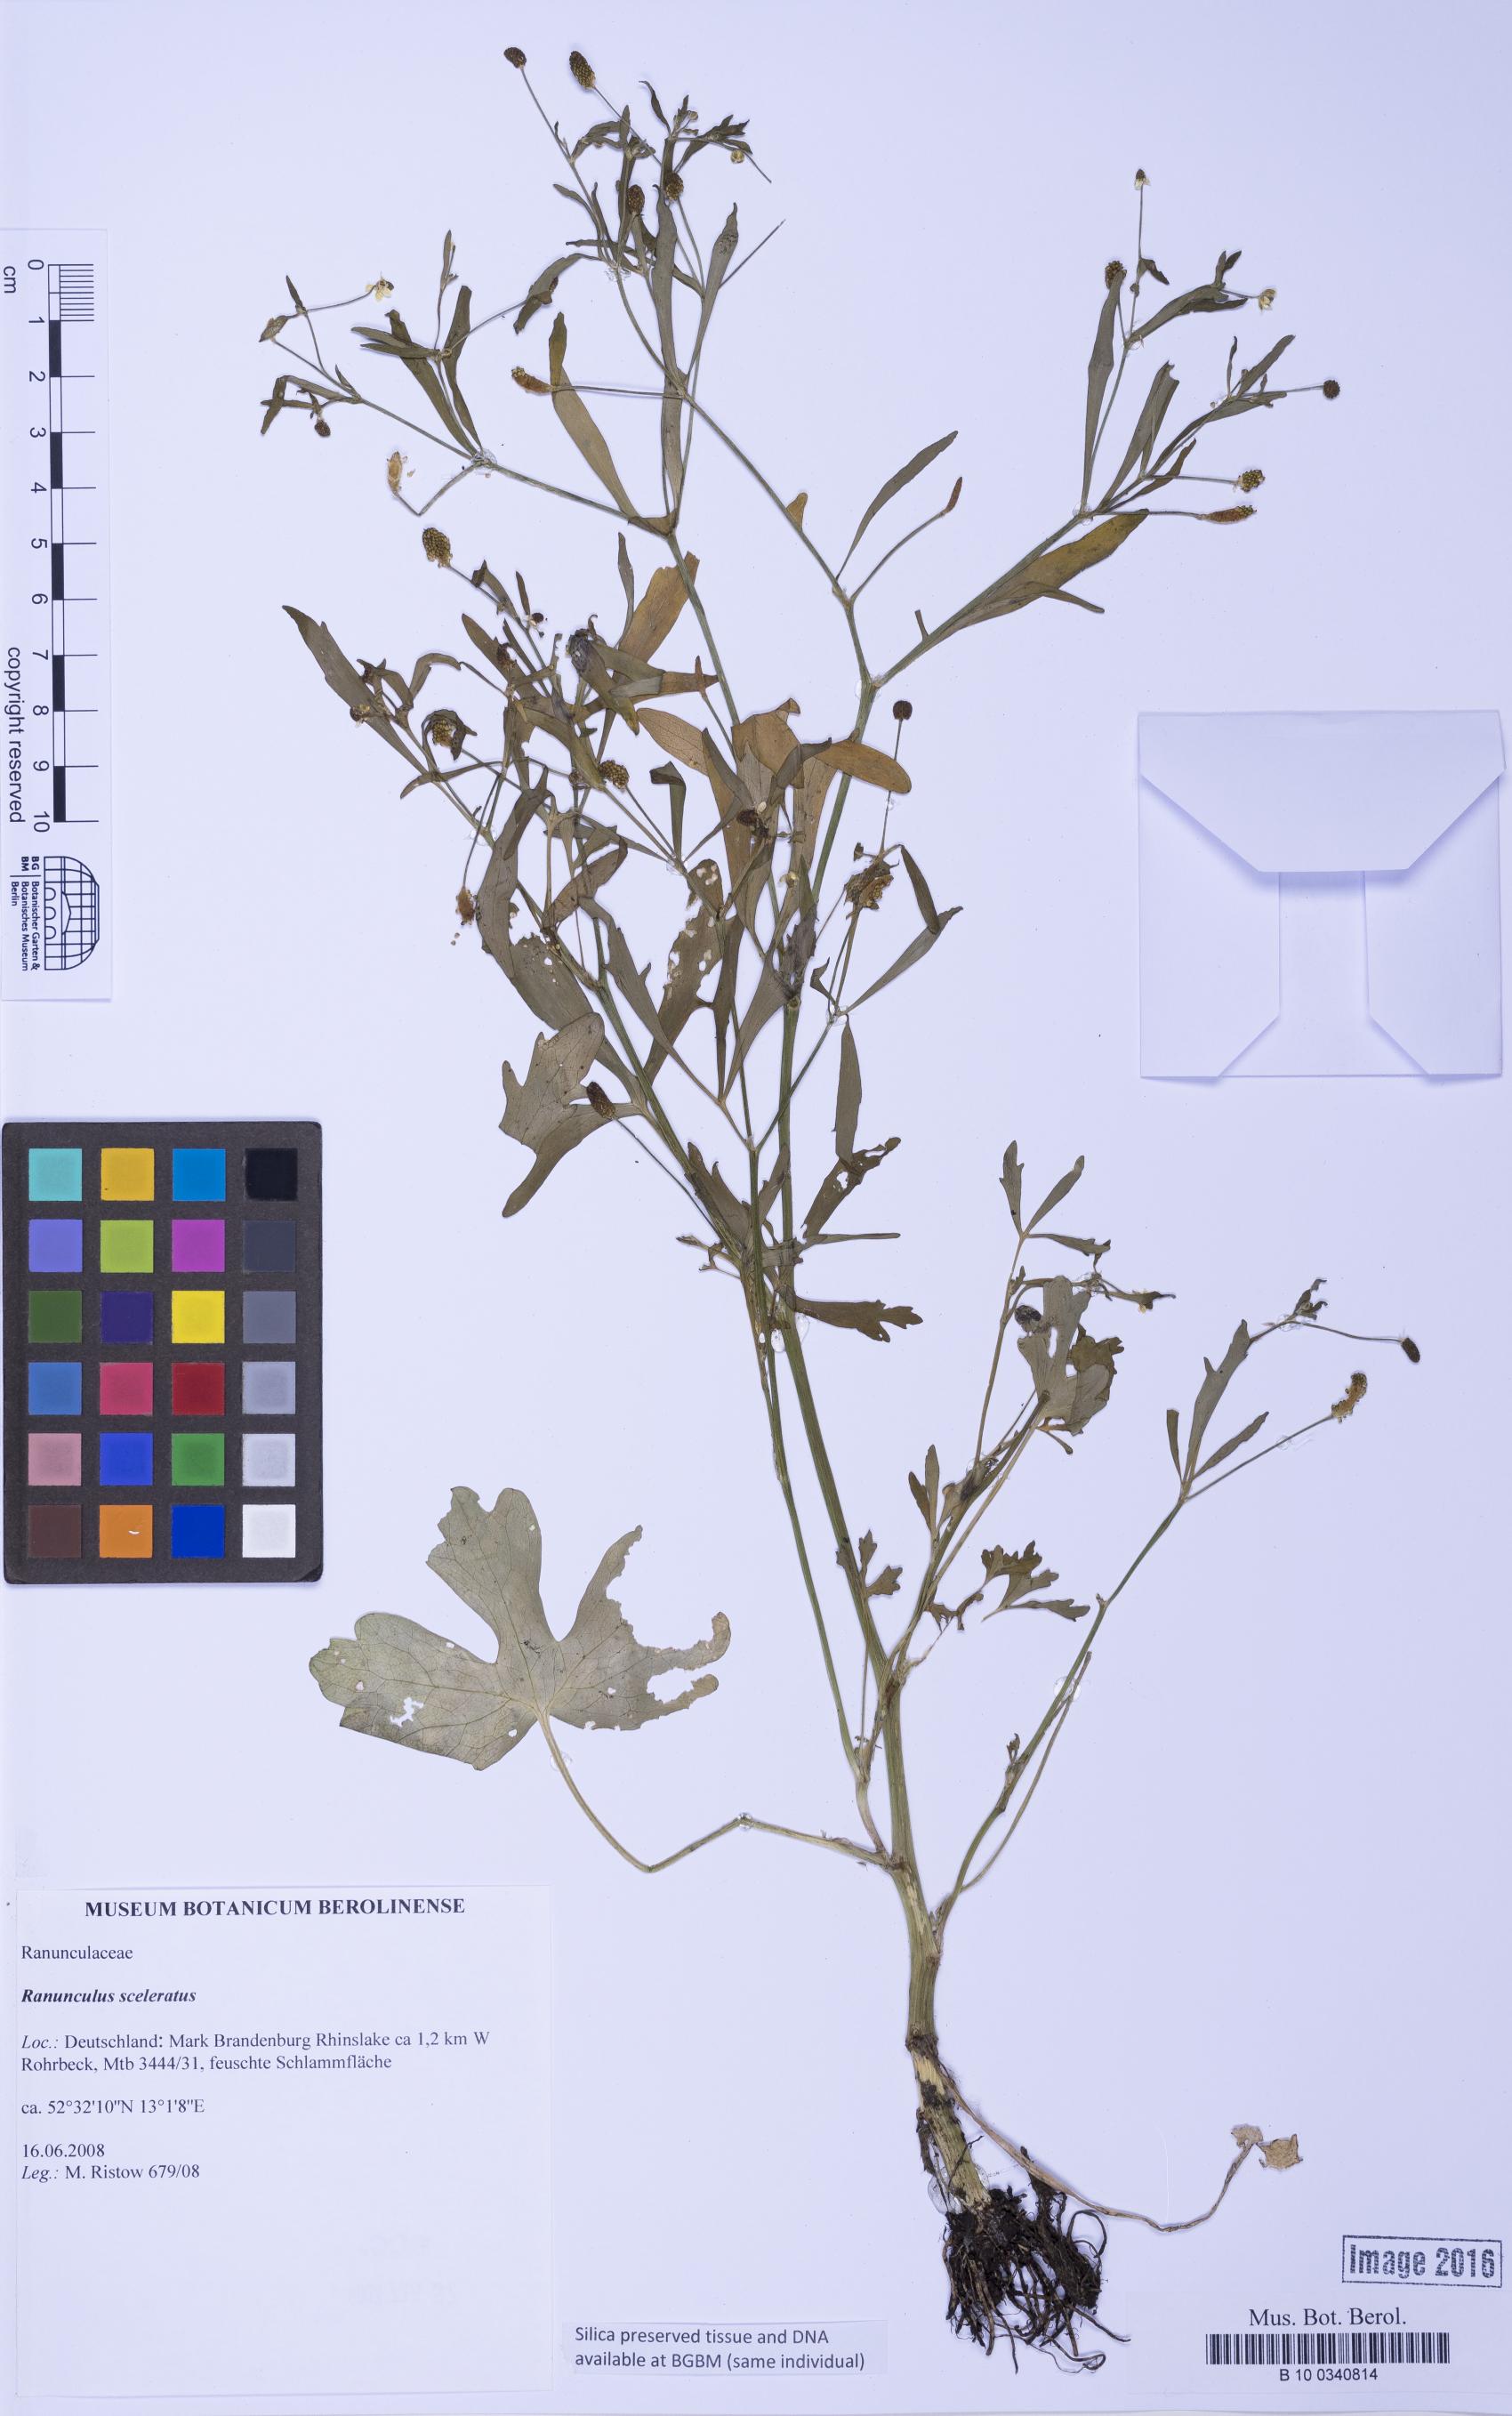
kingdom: Plantae
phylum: Tracheophyta
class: Magnoliopsida
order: Ranunculales
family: Ranunculaceae
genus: Ranunculus
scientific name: Ranunculus sceleratus
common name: Celery-leaved buttercup
